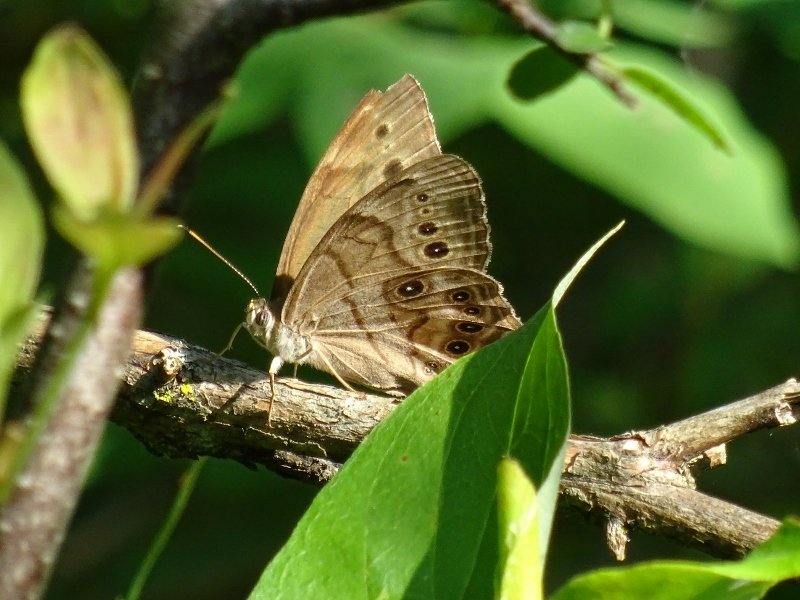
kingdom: Animalia
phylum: Arthropoda
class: Insecta
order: Lepidoptera
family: Nymphalidae
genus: Lethe
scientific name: Lethe anthedon
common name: Northern Pearly-Eye
